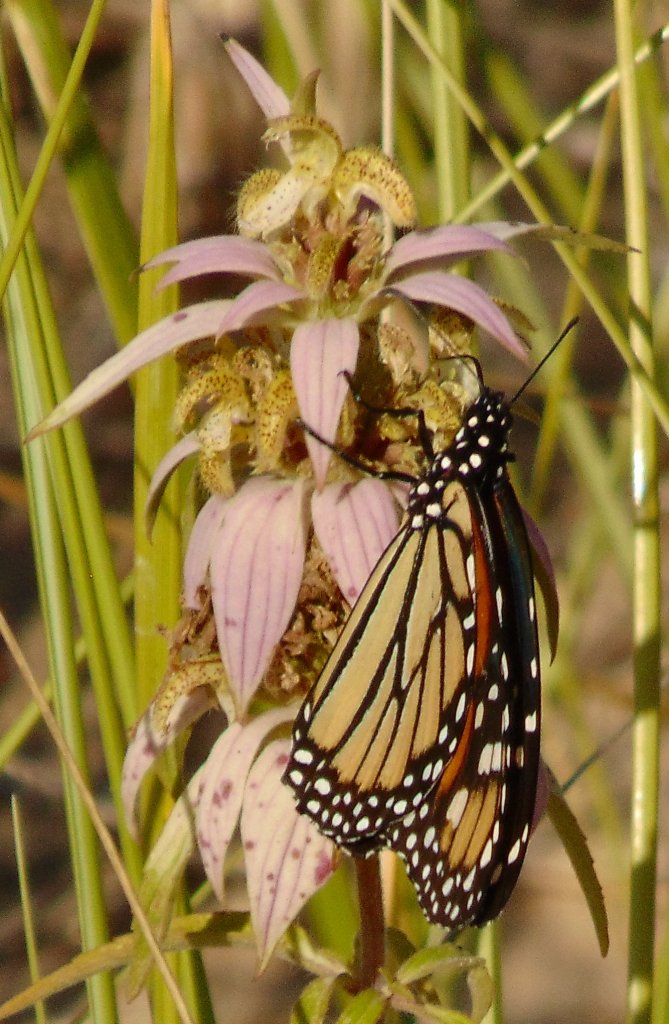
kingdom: Animalia
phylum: Arthropoda
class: Insecta
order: Lepidoptera
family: Nymphalidae
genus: Danaus
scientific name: Danaus plexippus
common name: Monarch
